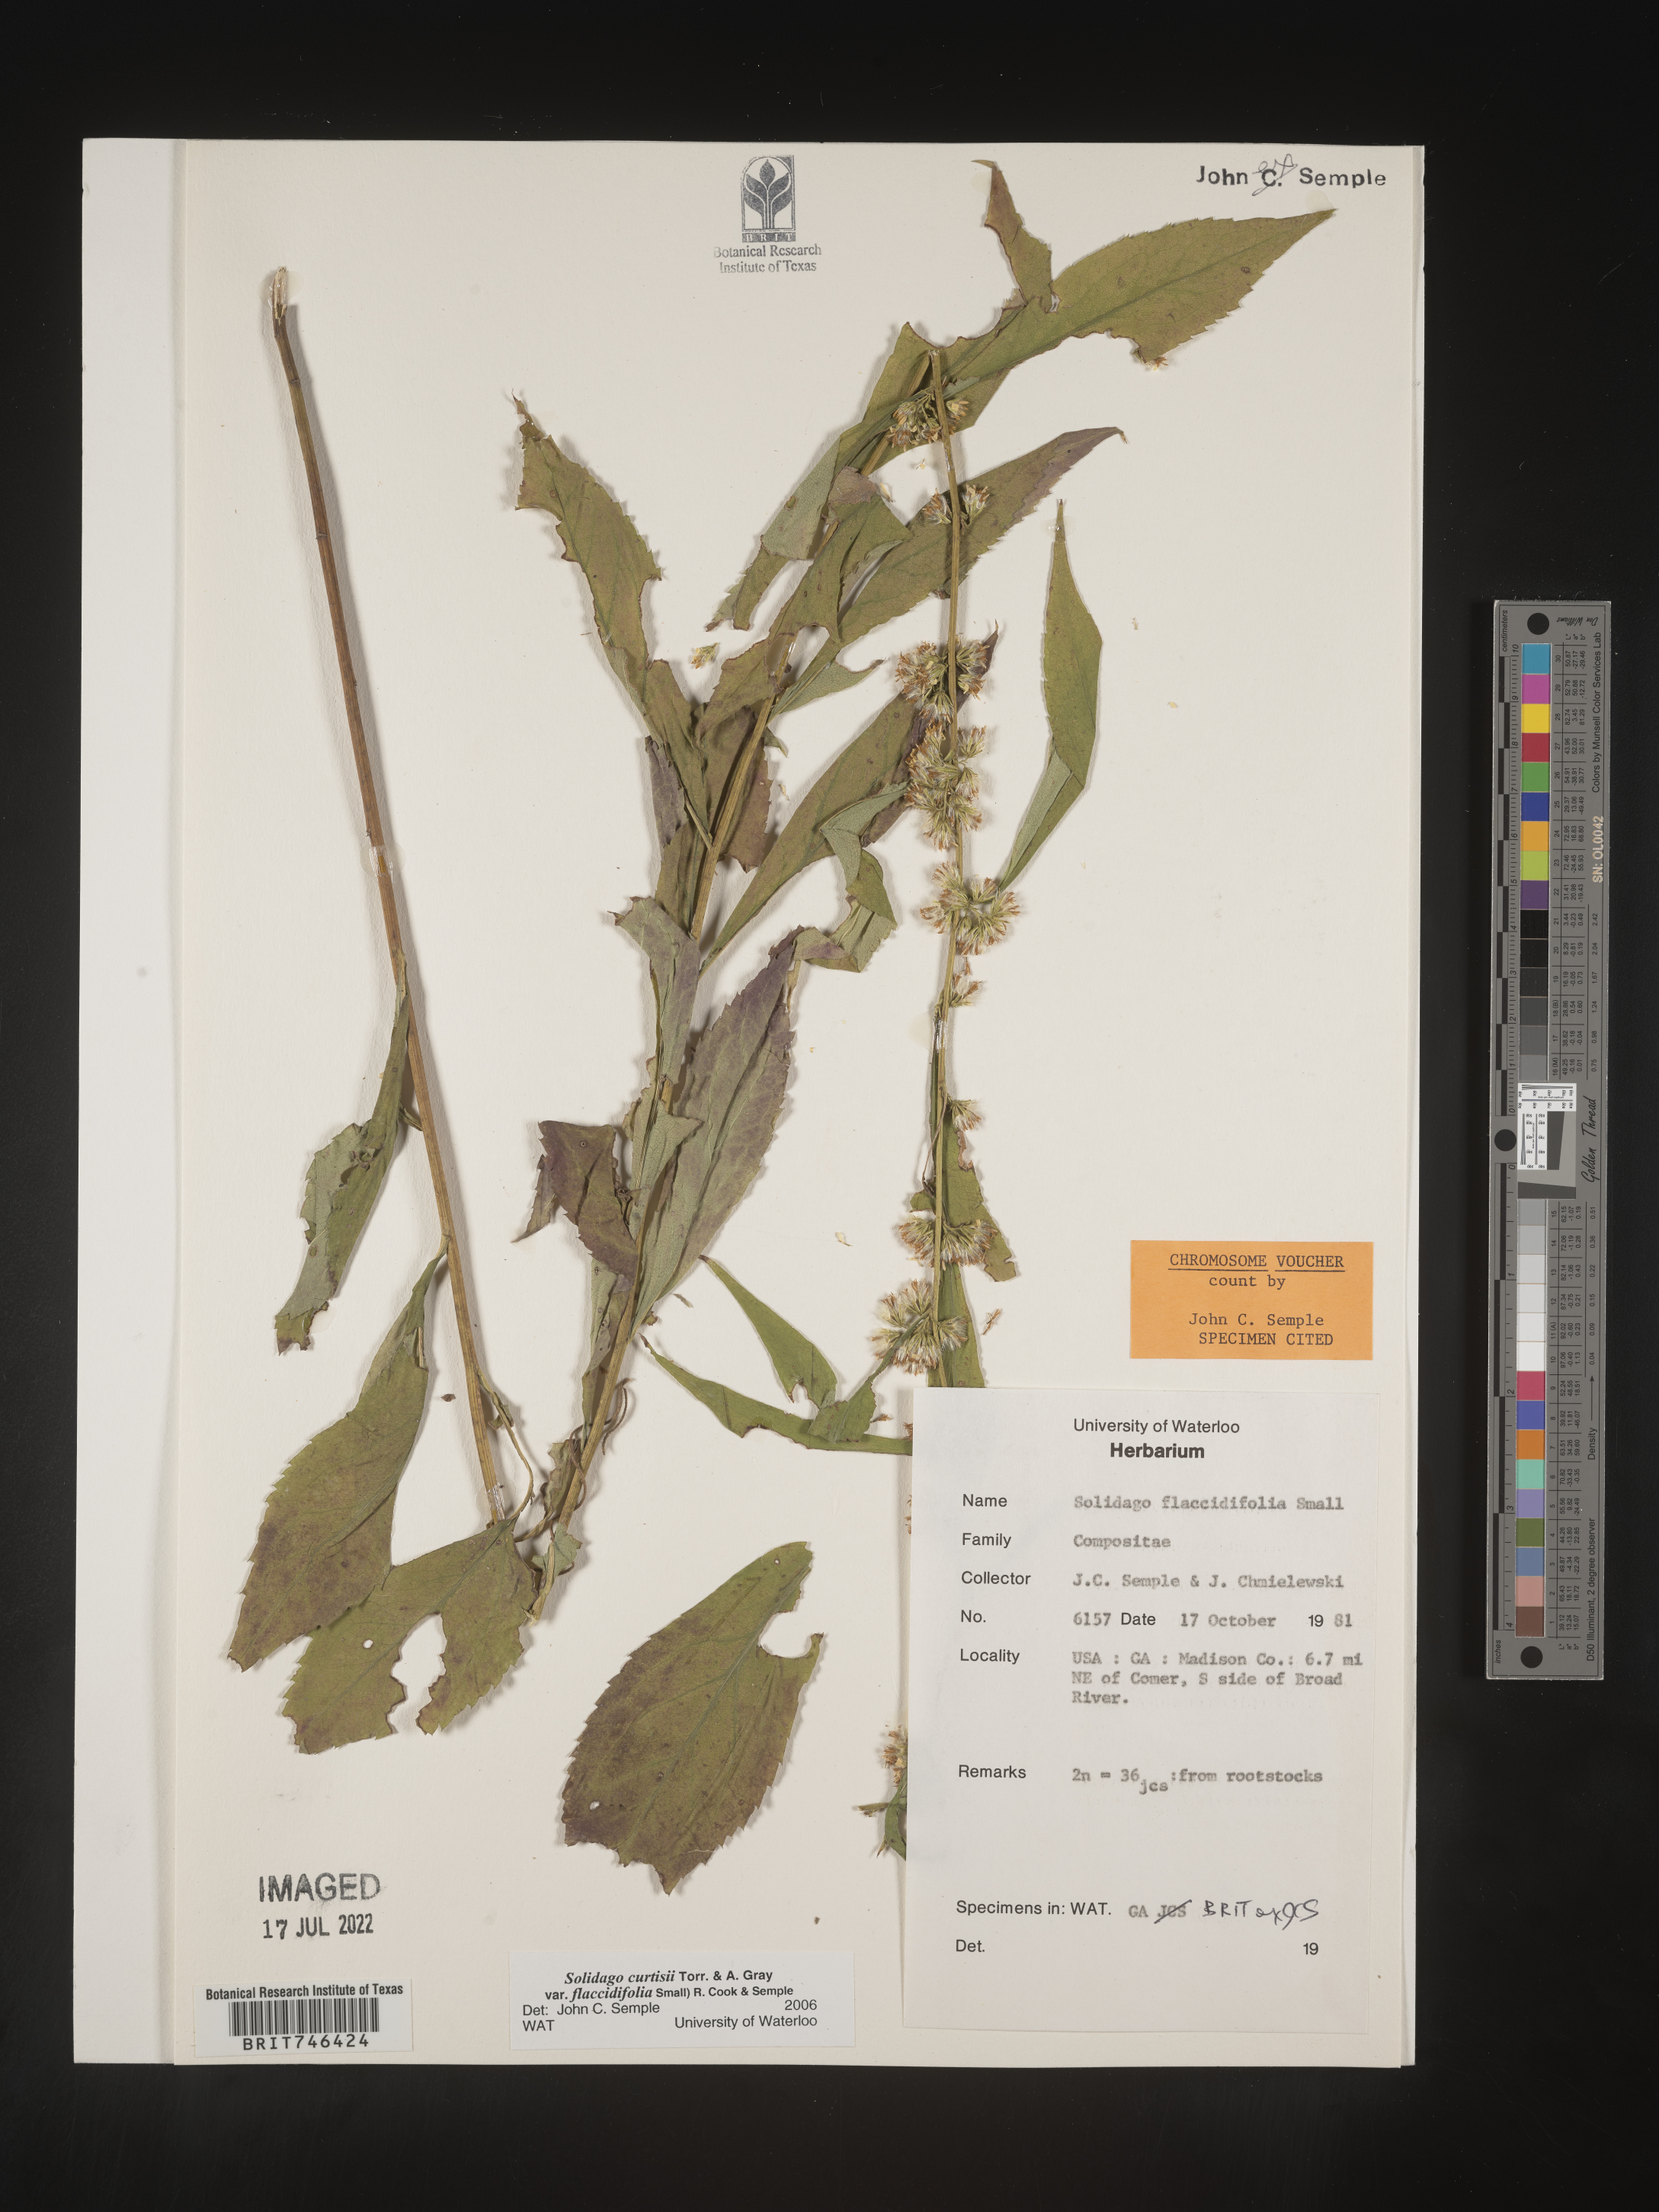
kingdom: Plantae
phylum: Tracheophyta
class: Magnoliopsida
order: Asterales
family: Asteraceae
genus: Solidago
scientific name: Solidago flaccidifolia
